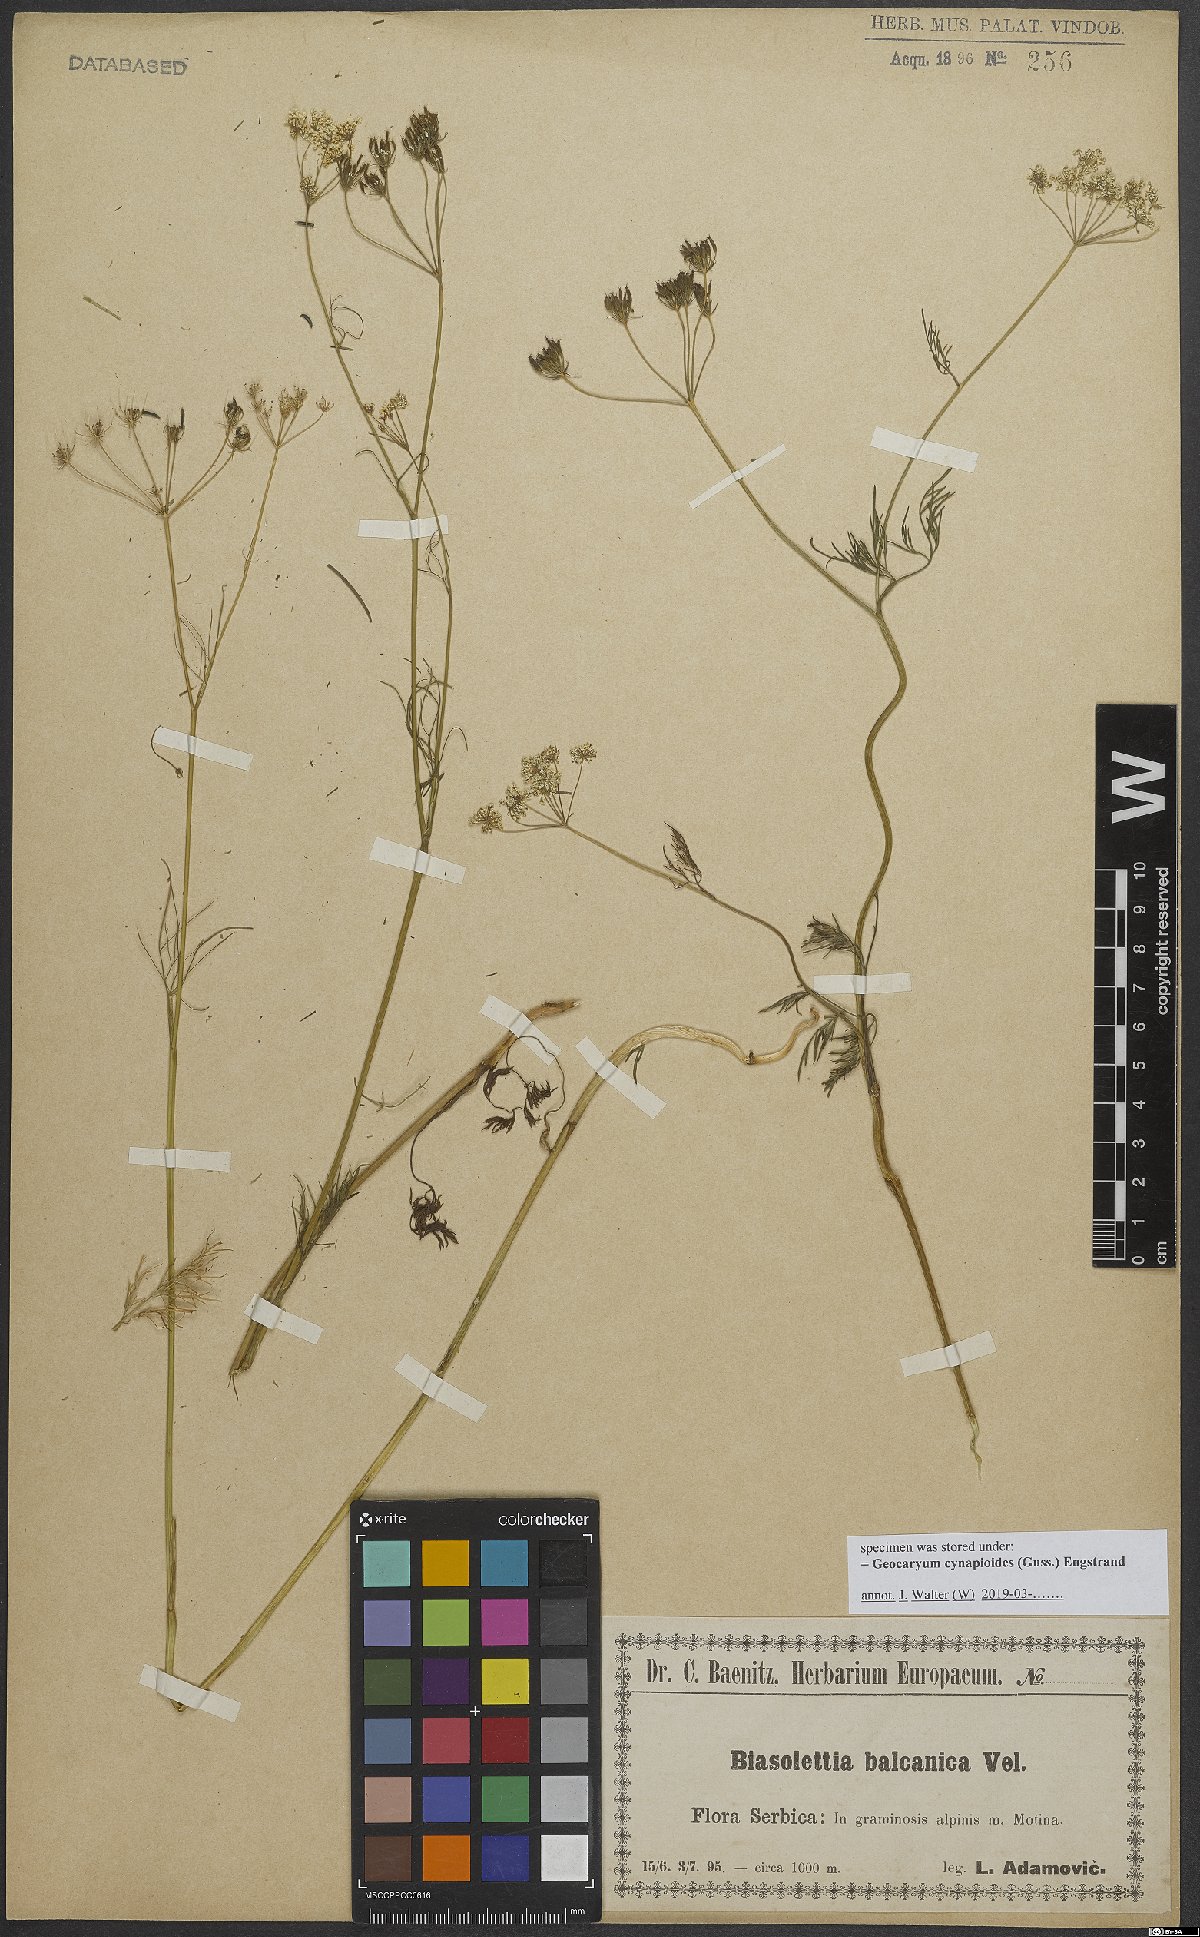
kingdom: Plantae
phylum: Tracheophyta
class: Magnoliopsida
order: Apiales
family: Apiaceae
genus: Geocaryum
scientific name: Geocaryum cynapioides
